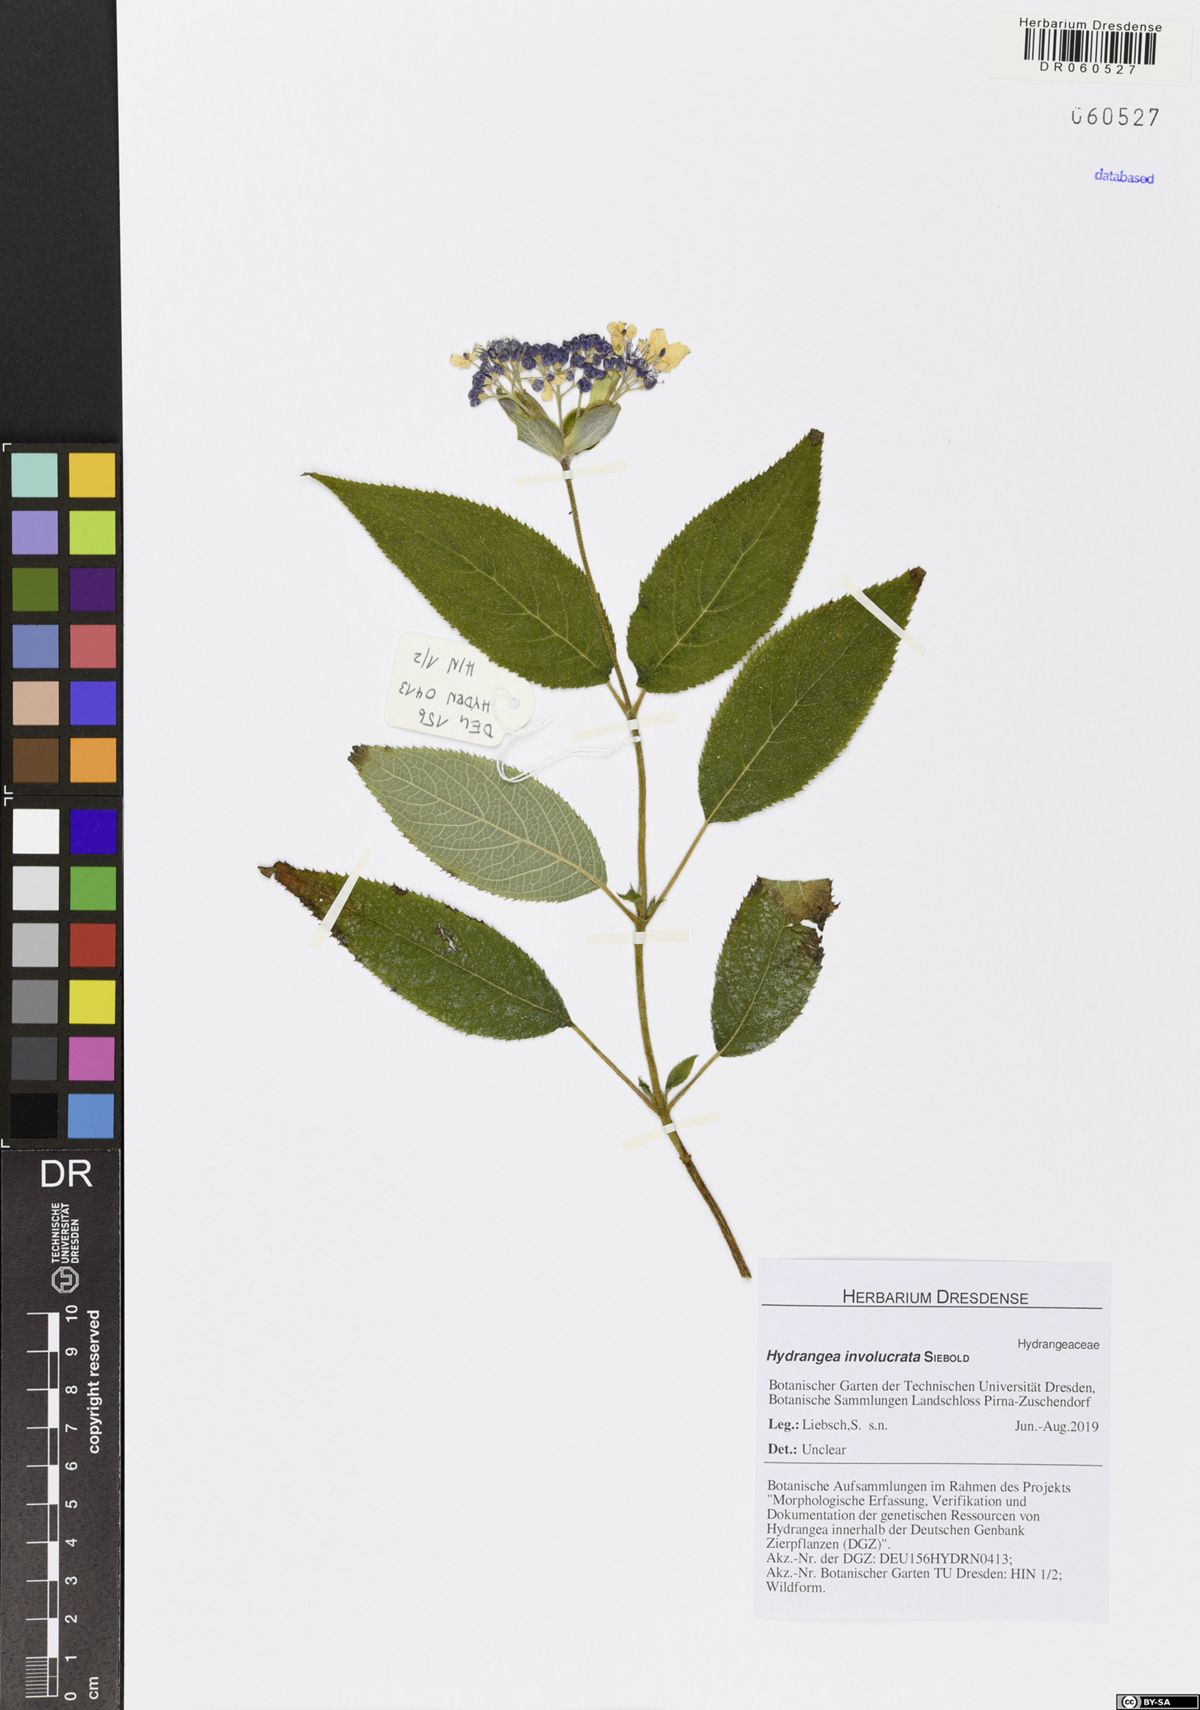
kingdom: Plantae
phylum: Tracheophyta
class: Magnoliopsida
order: Cornales
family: Hydrangeaceae
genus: Hydrangea
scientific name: Hydrangea involucrata
